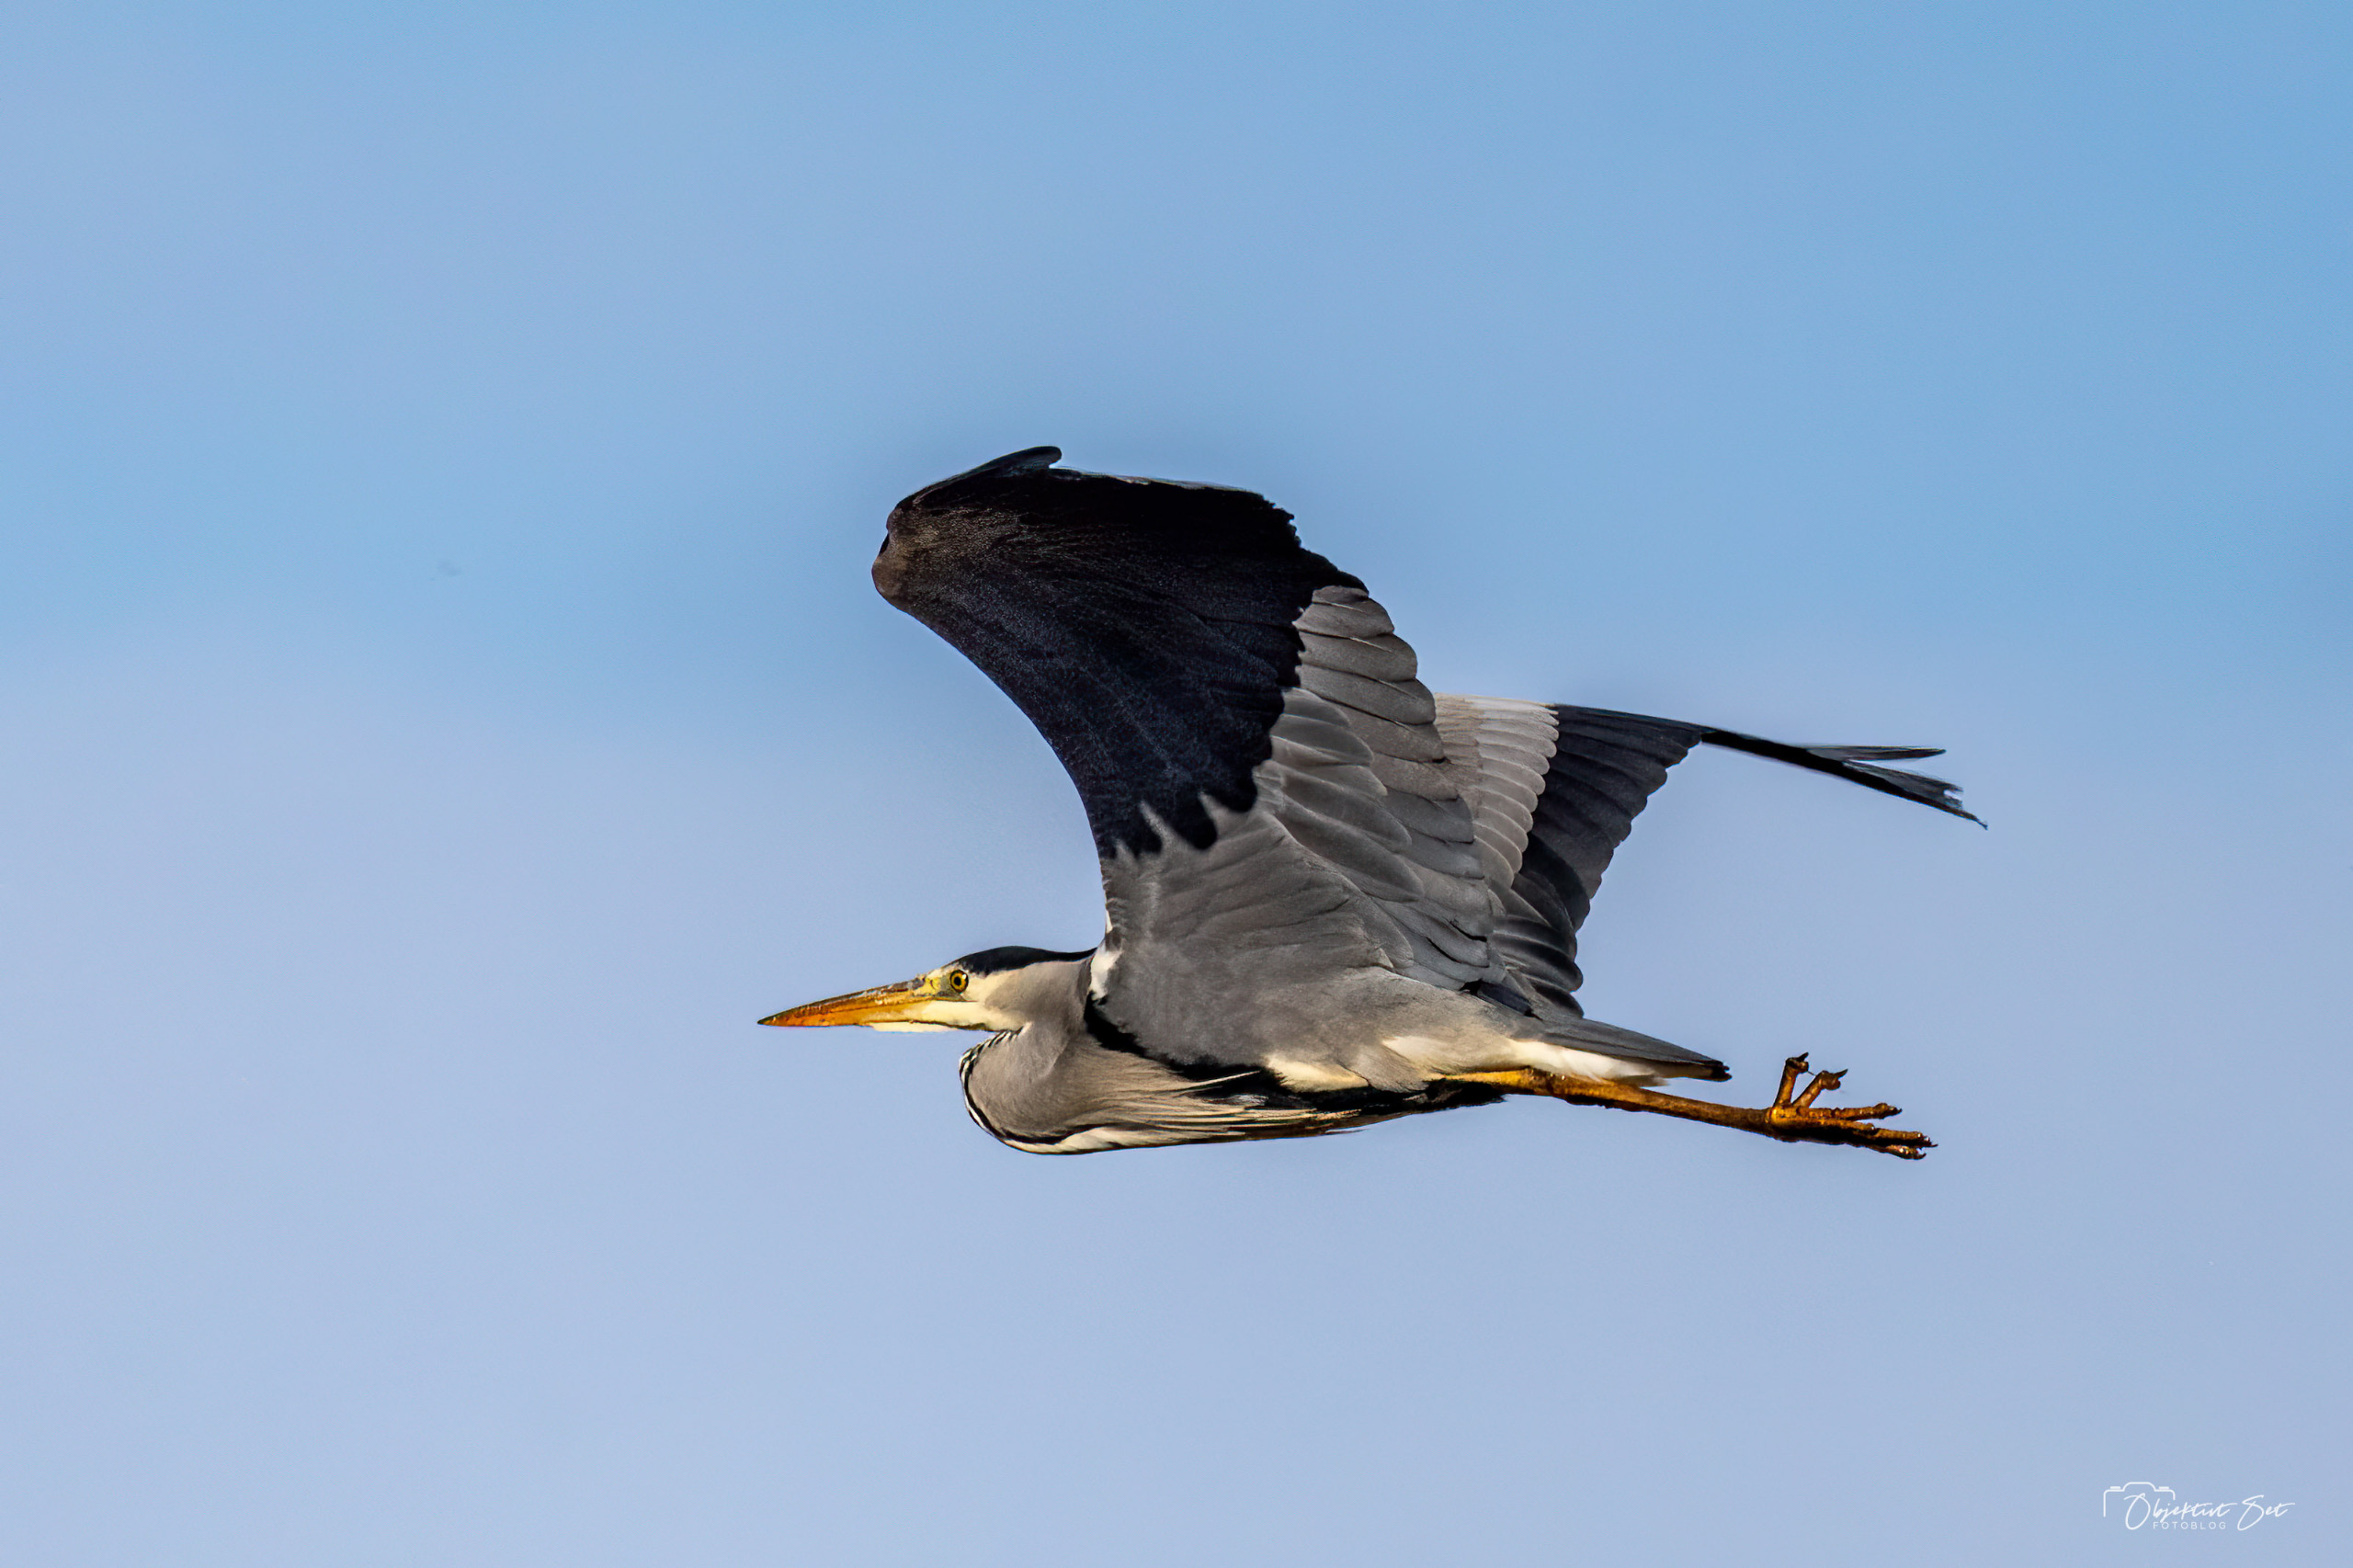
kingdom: Animalia
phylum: Chordata
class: Aves
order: Pelecaniformes
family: Ardeidae
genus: Ardea
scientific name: Ardea cinerea
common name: Fiskehejre
